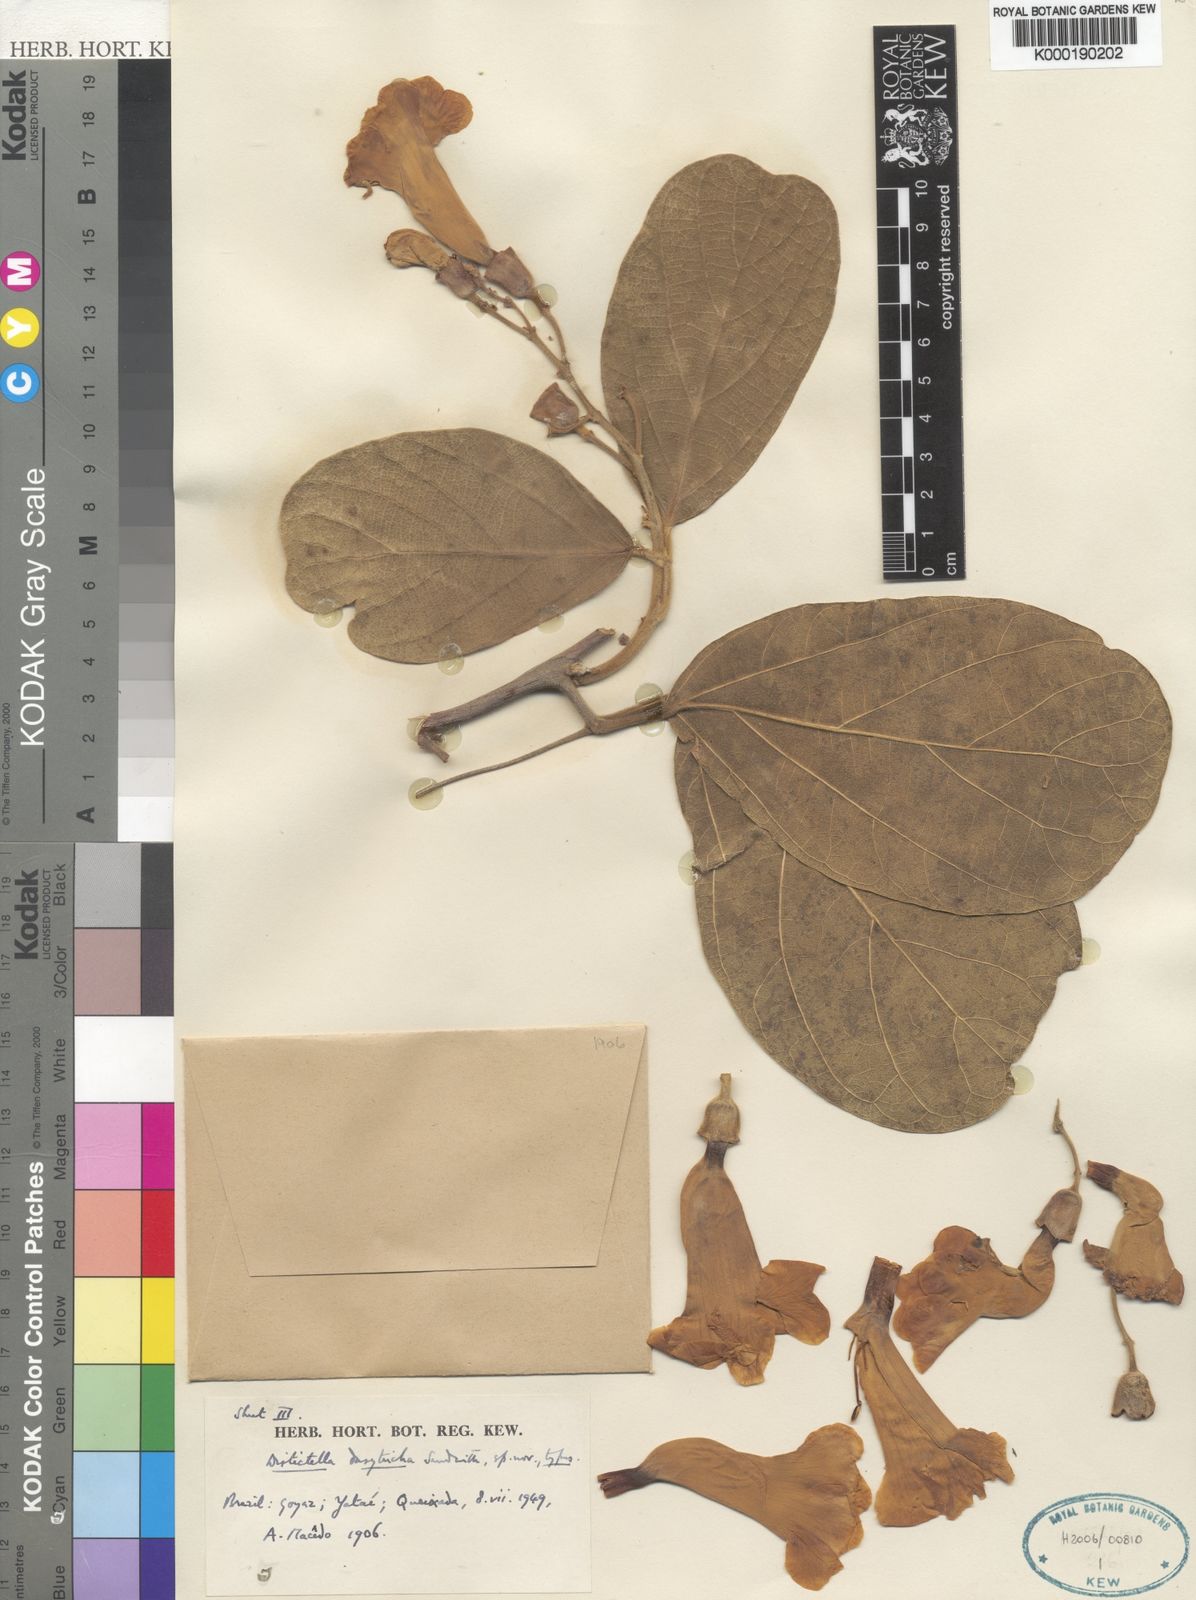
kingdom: Plantae
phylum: Tracheophyta
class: Magnoliopsida
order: Lamiales
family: Bignoniaceae
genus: Amphilophium
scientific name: Amphilophium dasytrichum
